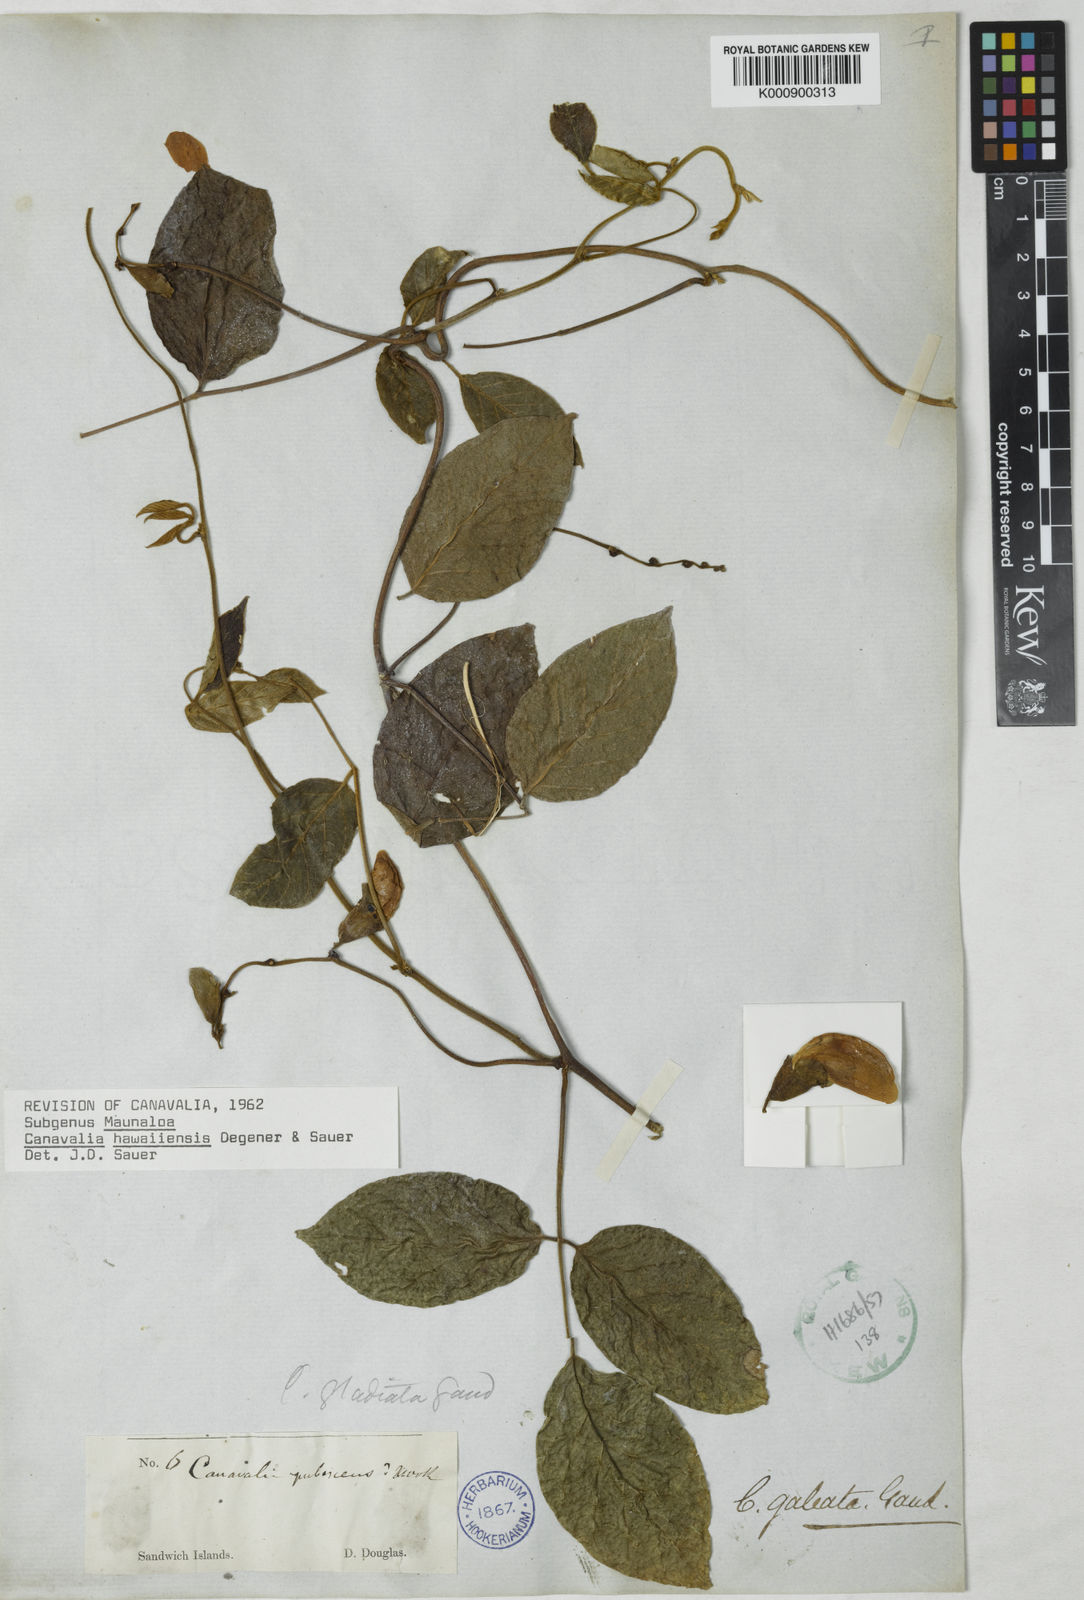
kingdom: Plantae
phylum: Tracheophyta
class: Magnoliopsida
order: Fabales
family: Fabaceae
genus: Canavalia
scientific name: Canavalia
